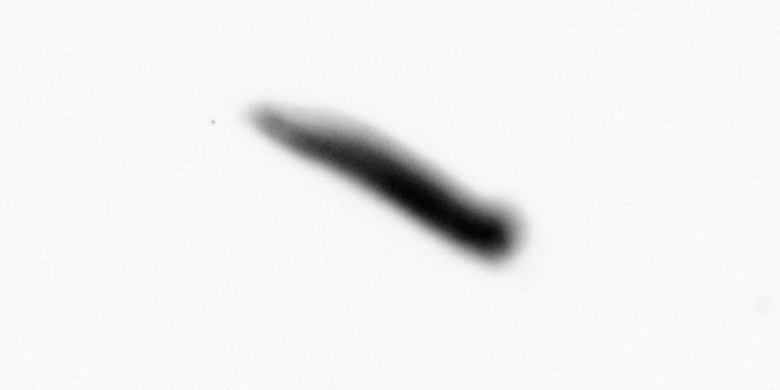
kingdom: Animalia
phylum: Annelida
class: Polychaeta
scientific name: Polychaeta
